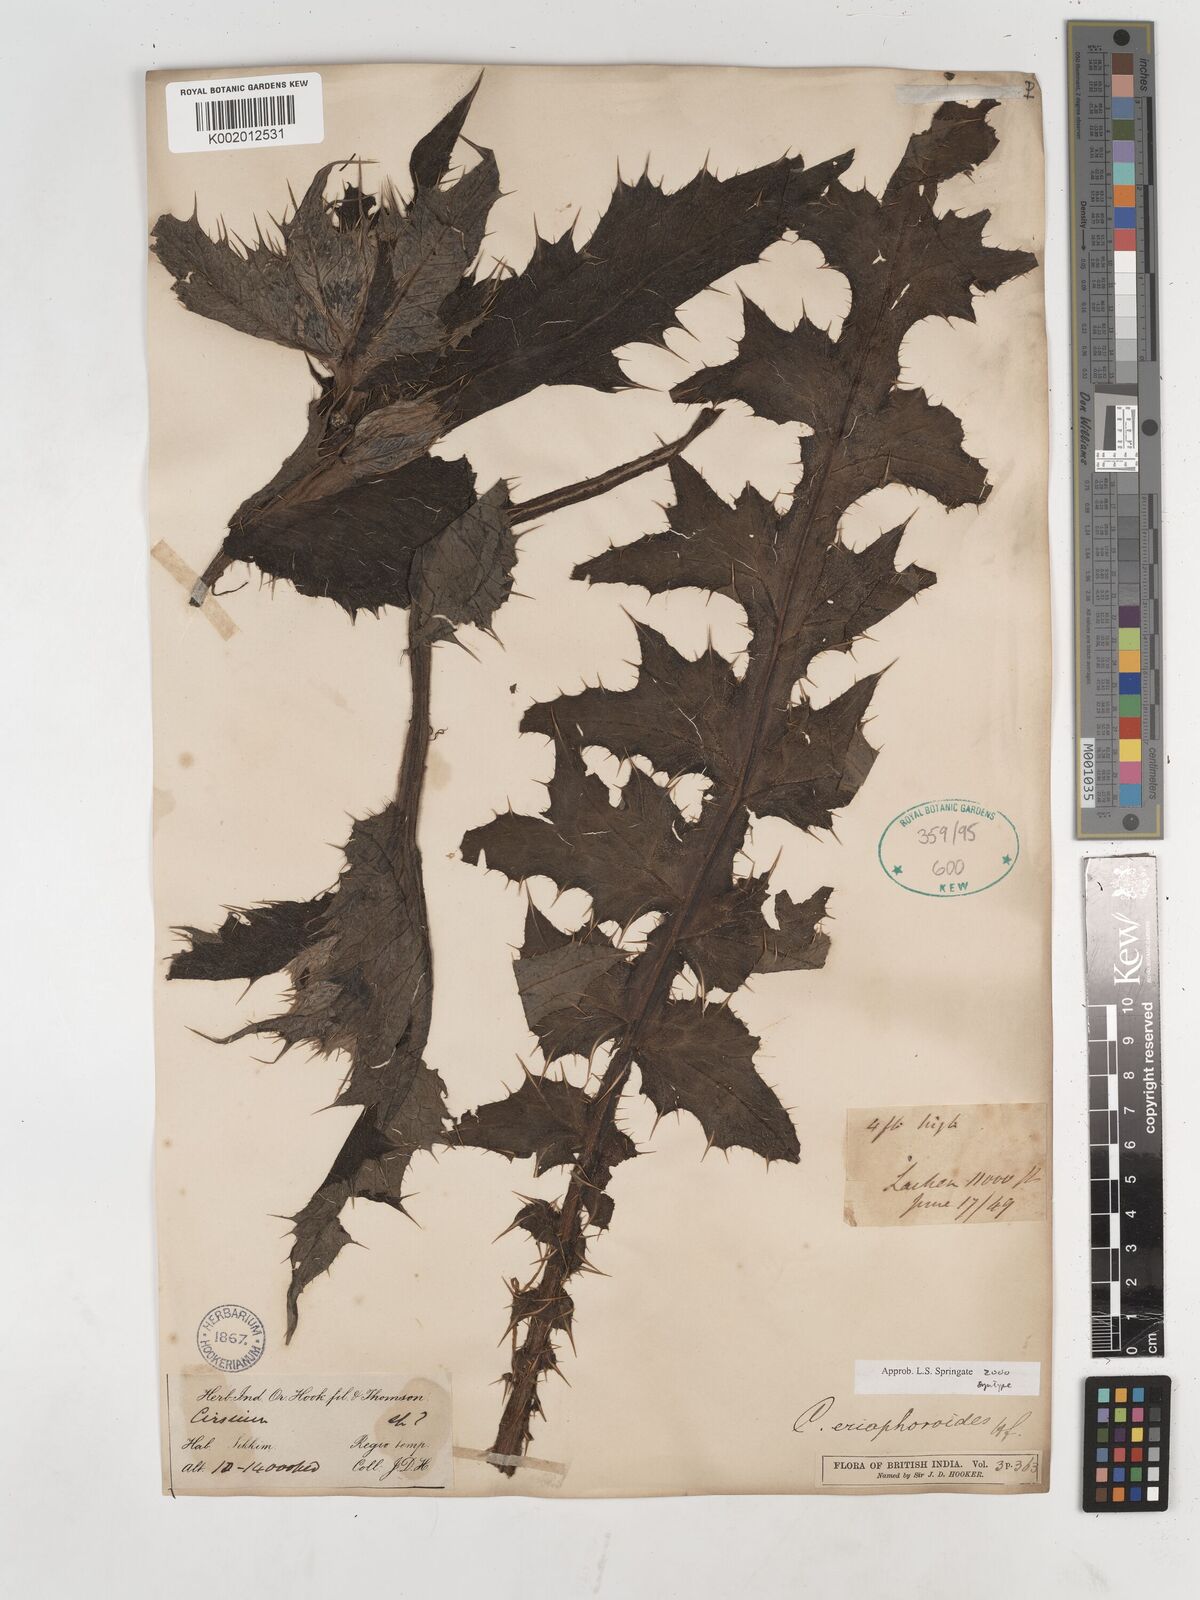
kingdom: Plantae
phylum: Tracheophyta
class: Magnoliopsida
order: Asterales
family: Asteraceae
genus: Cirsium
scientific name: Cirsium eriophoroides
